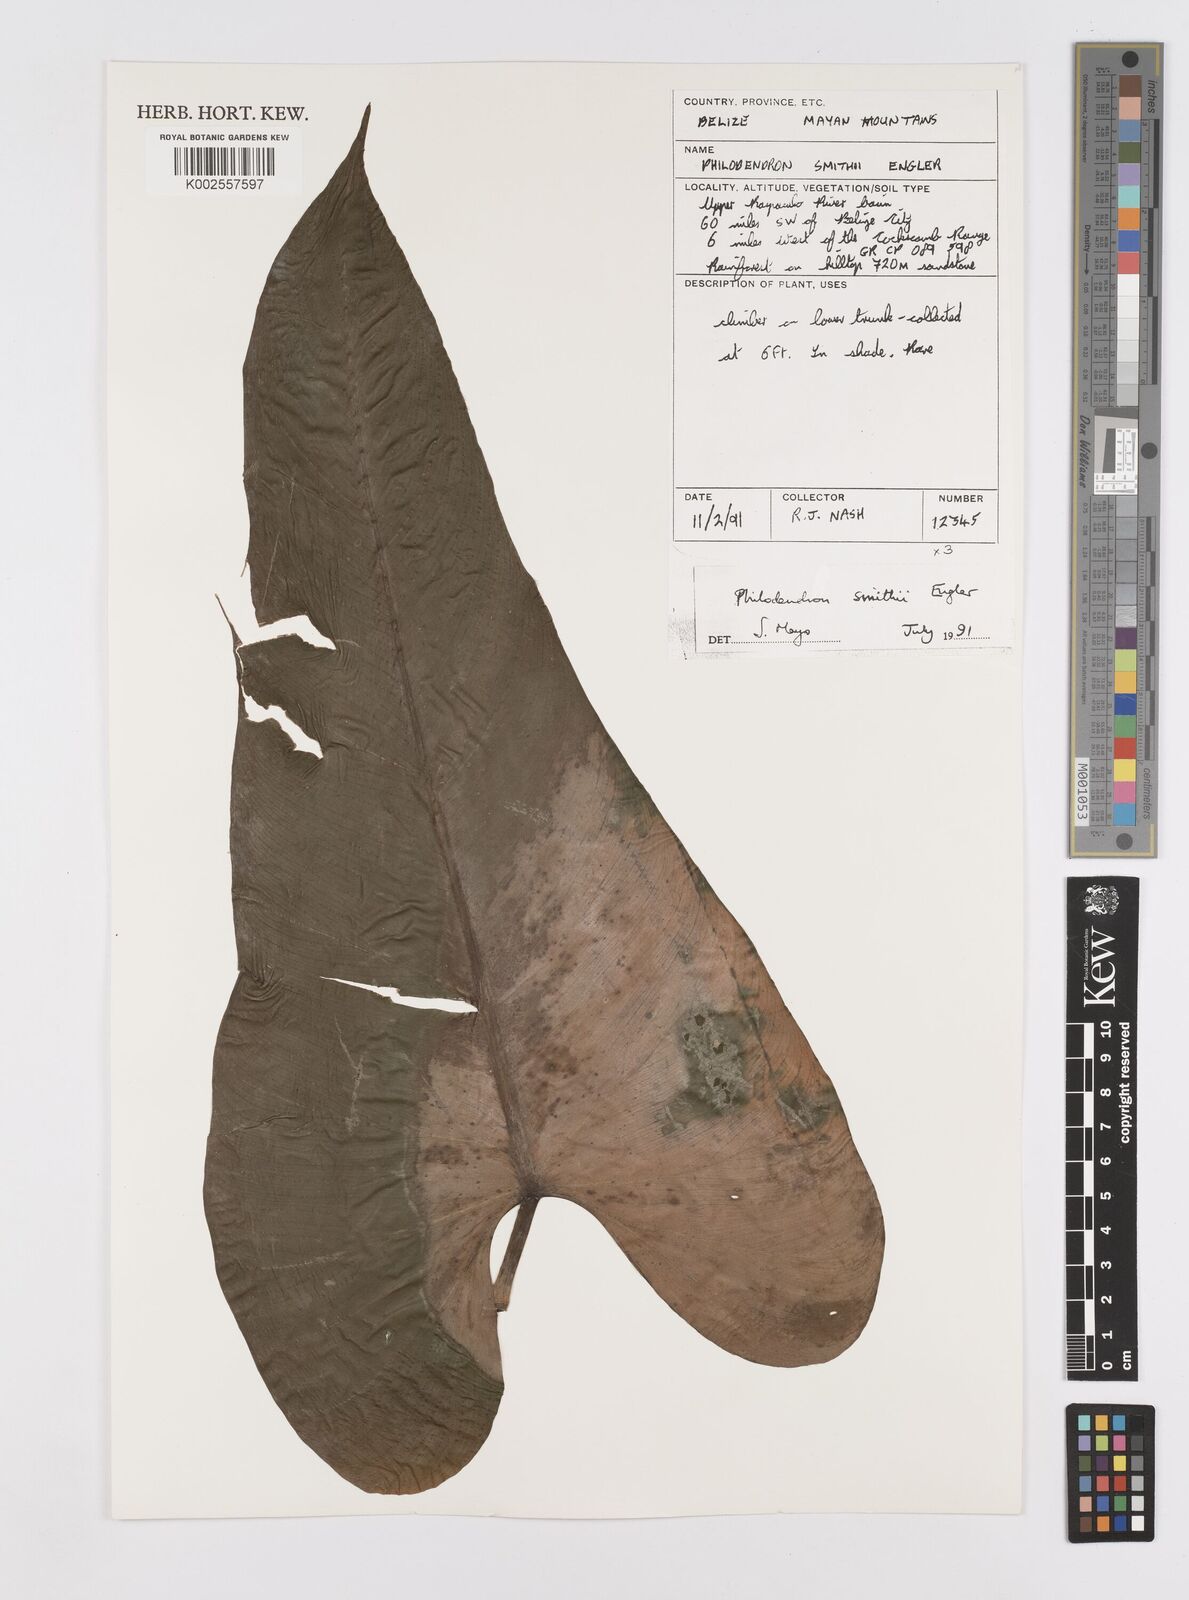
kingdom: Plantae
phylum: Tracheophyta
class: Liliopsida
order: Alismatales
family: Araceae
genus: Philodendron
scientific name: Philodendron smithii
